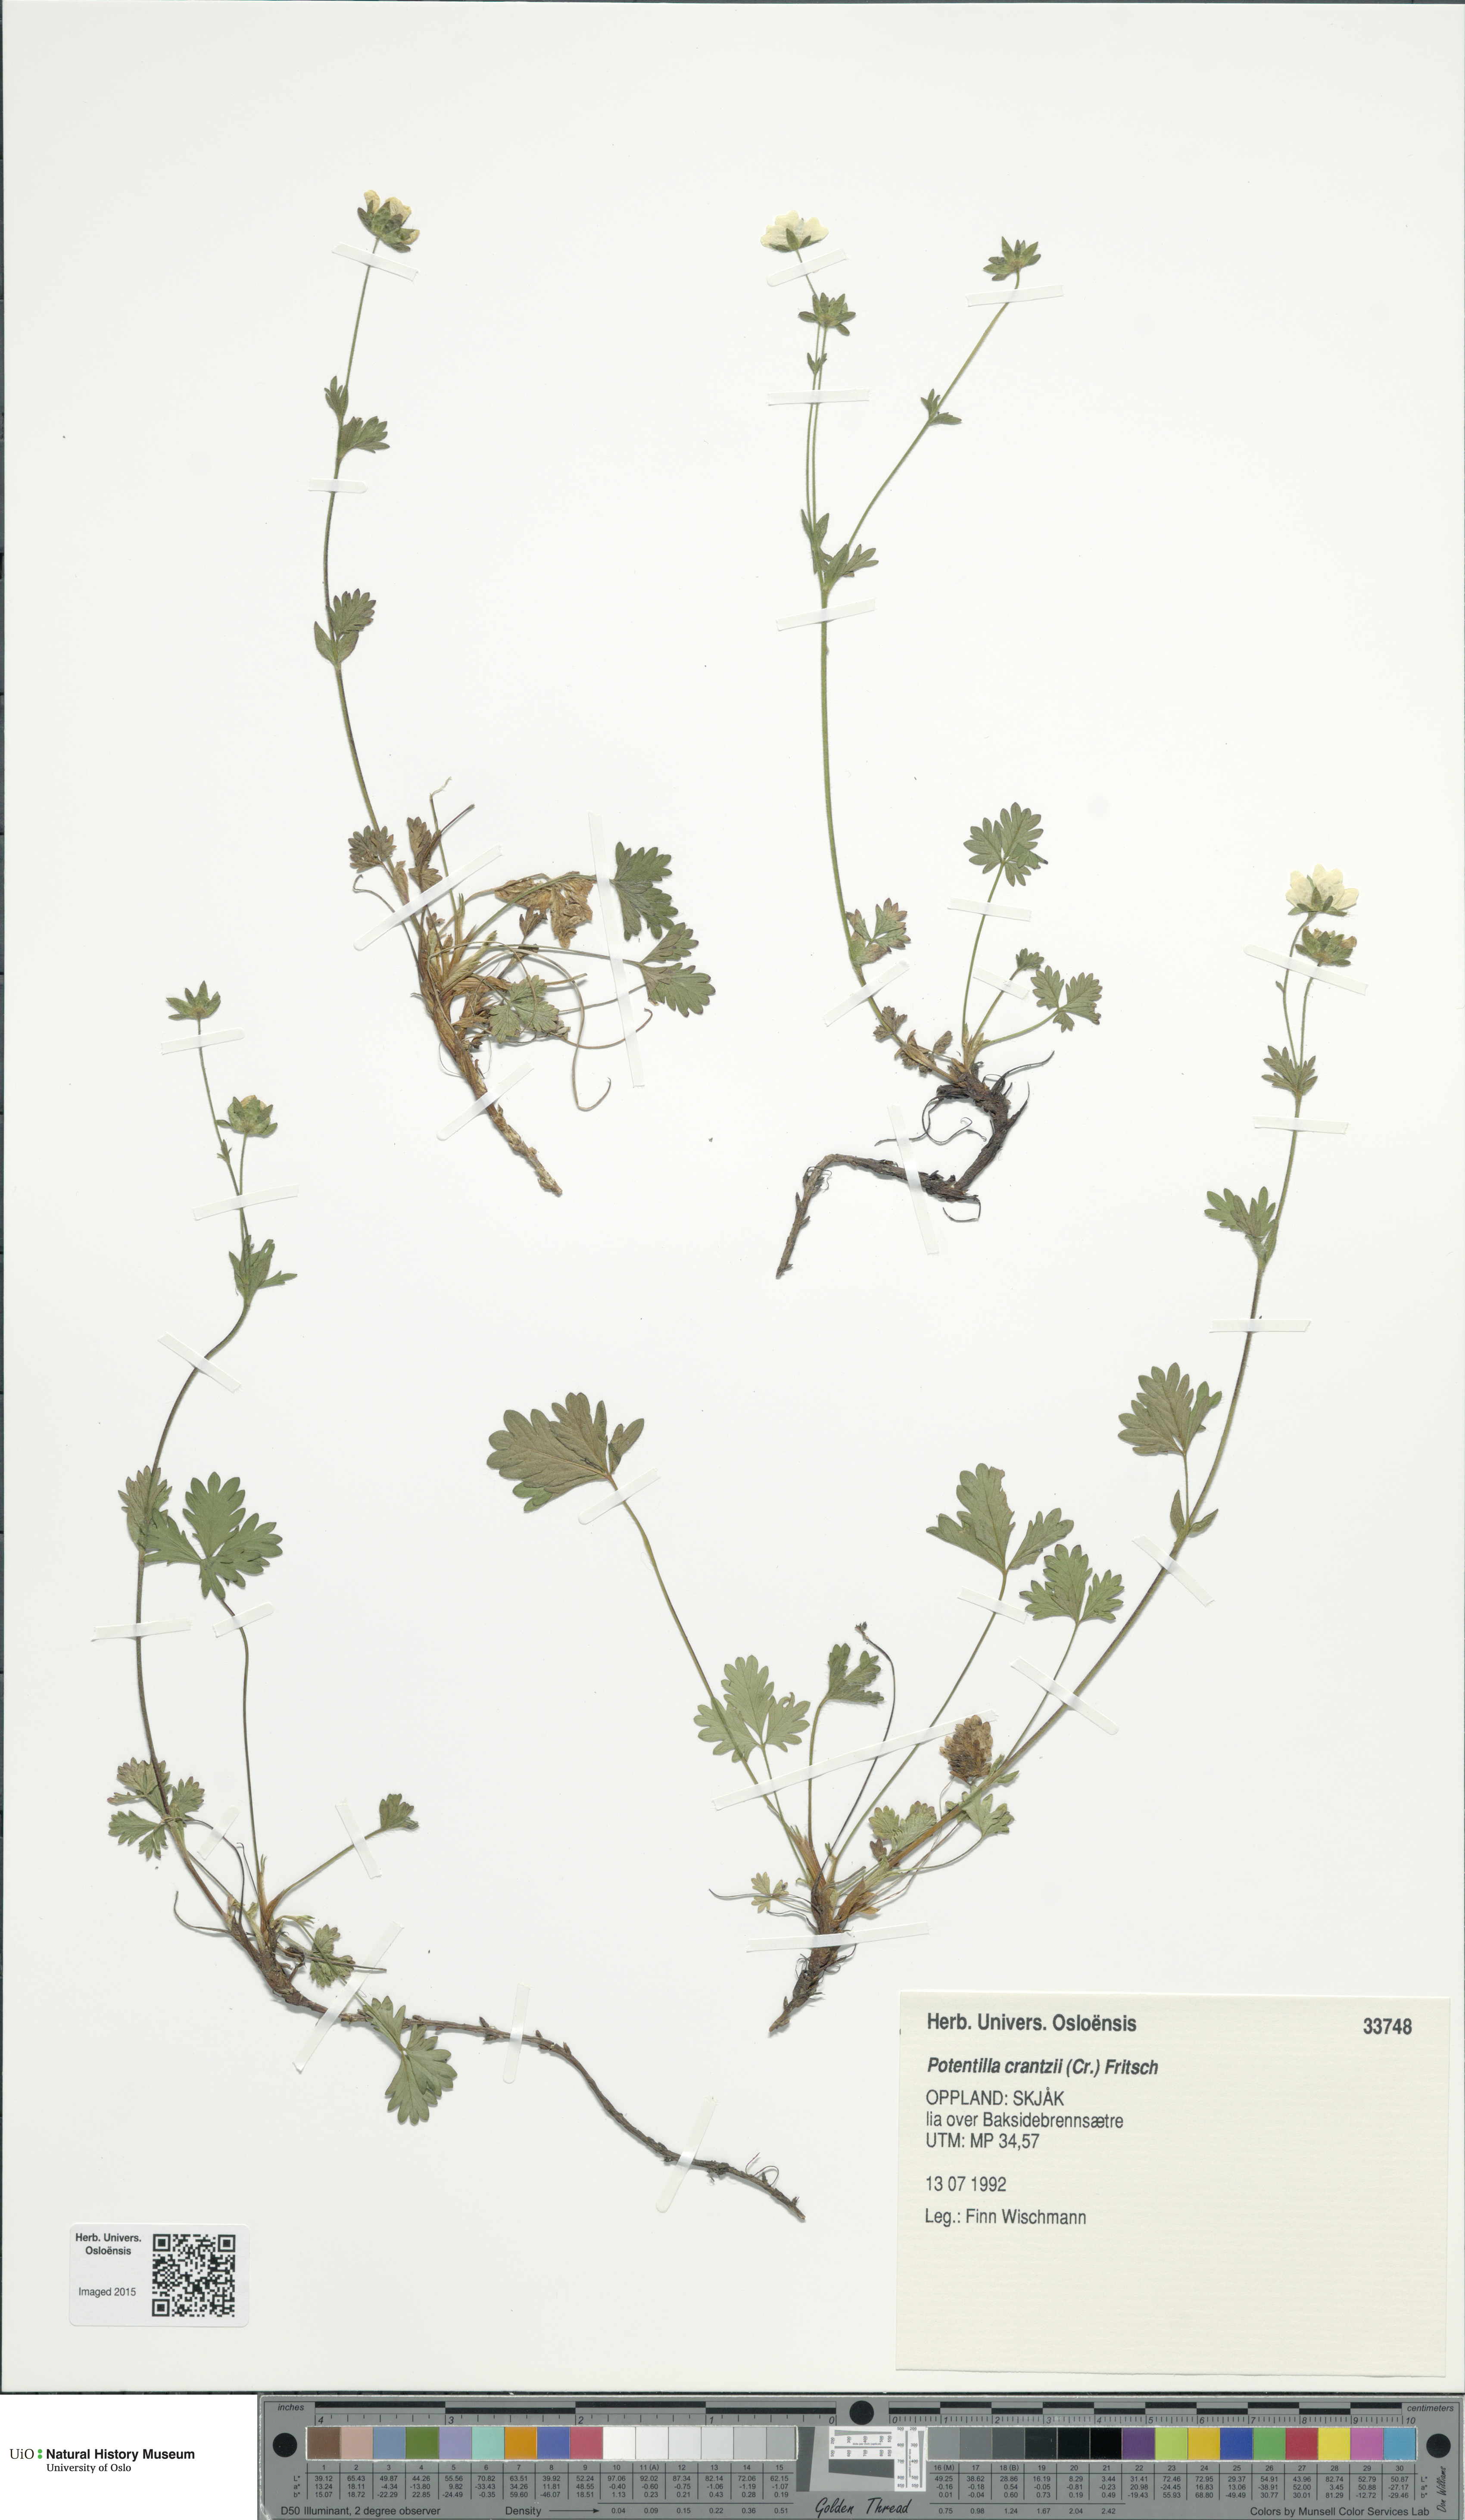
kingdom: Plantae
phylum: Tracheophyta
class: Magnoliopsida
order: Rosales
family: Rosaceae
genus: Potentilla
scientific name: Potentilla crantzii
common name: Alpine cinquefoil
